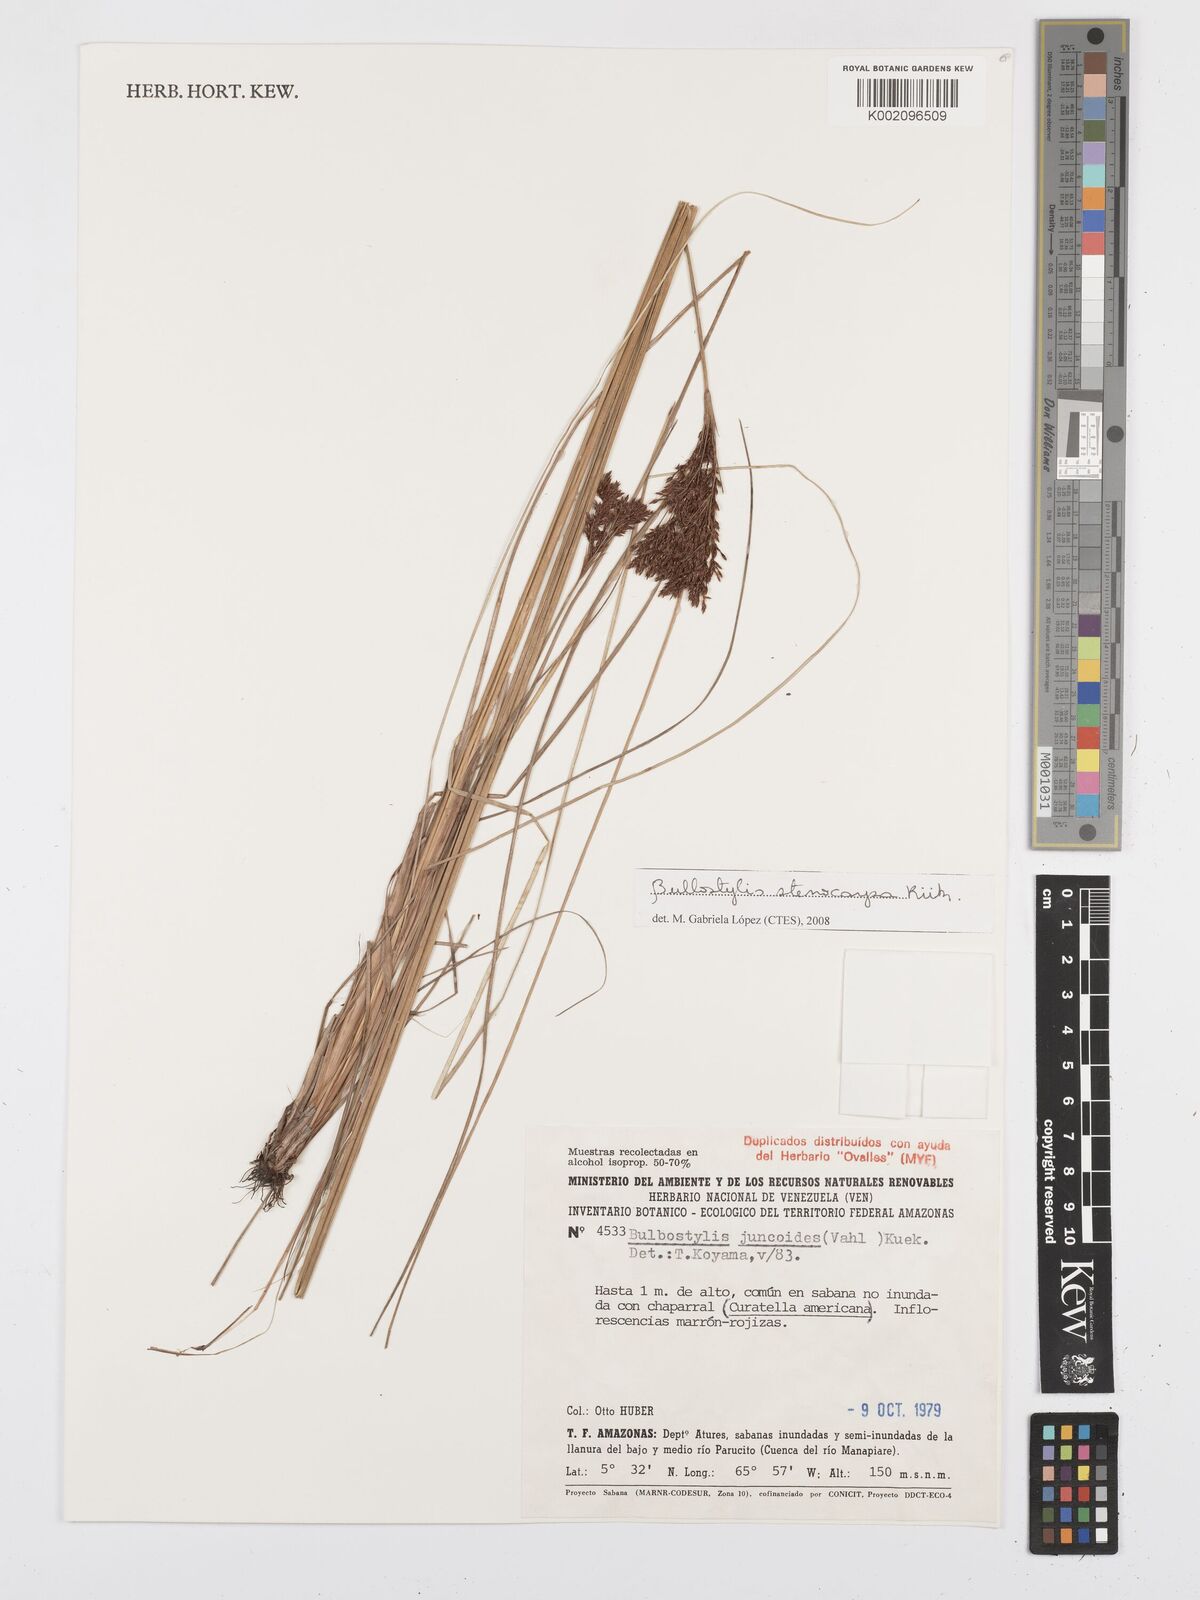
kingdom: Plantae
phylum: Tracheophyta
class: Liliopsida
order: Poales
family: Cyperaceae
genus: Bulbostylis
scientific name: Bulbostylis stenocarpa
